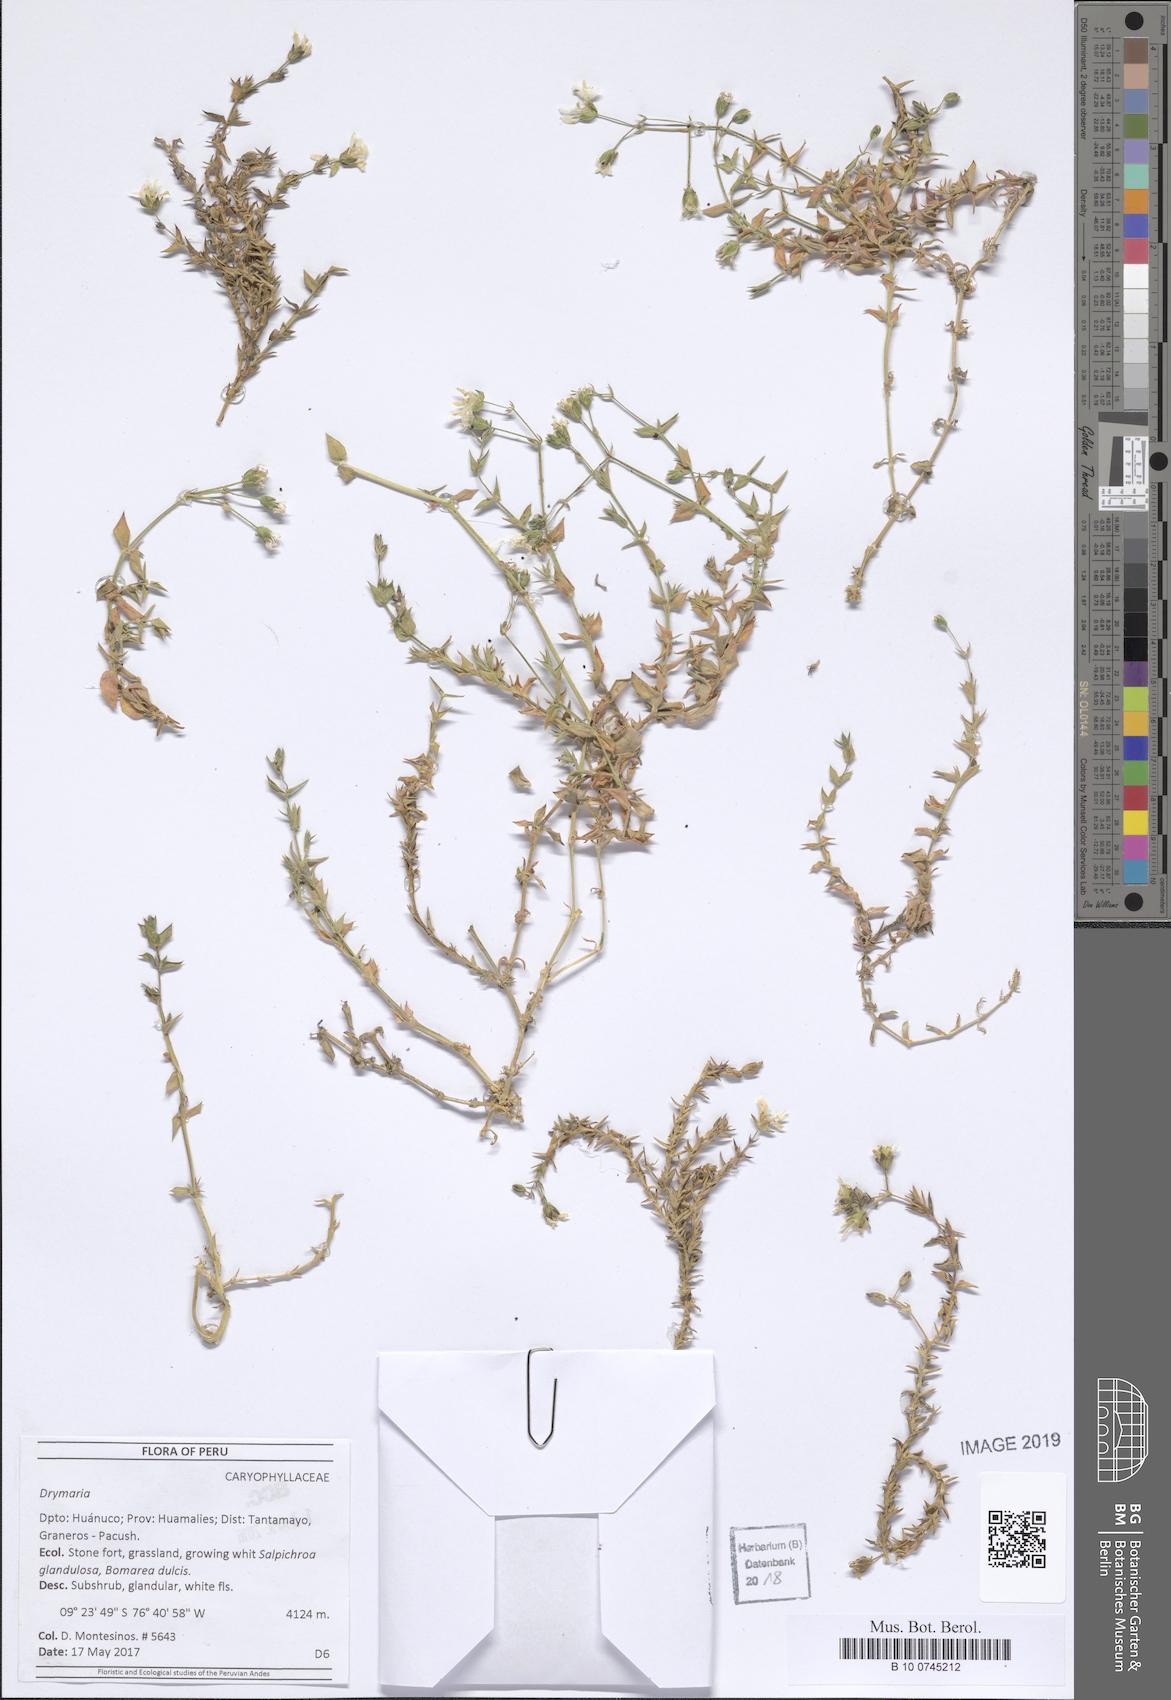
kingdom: Plantae
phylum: Tracheophyta
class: Magnoliopsida
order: Caryophyllales
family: Caryophyllaceae
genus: Drymaria
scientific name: Drymaria
